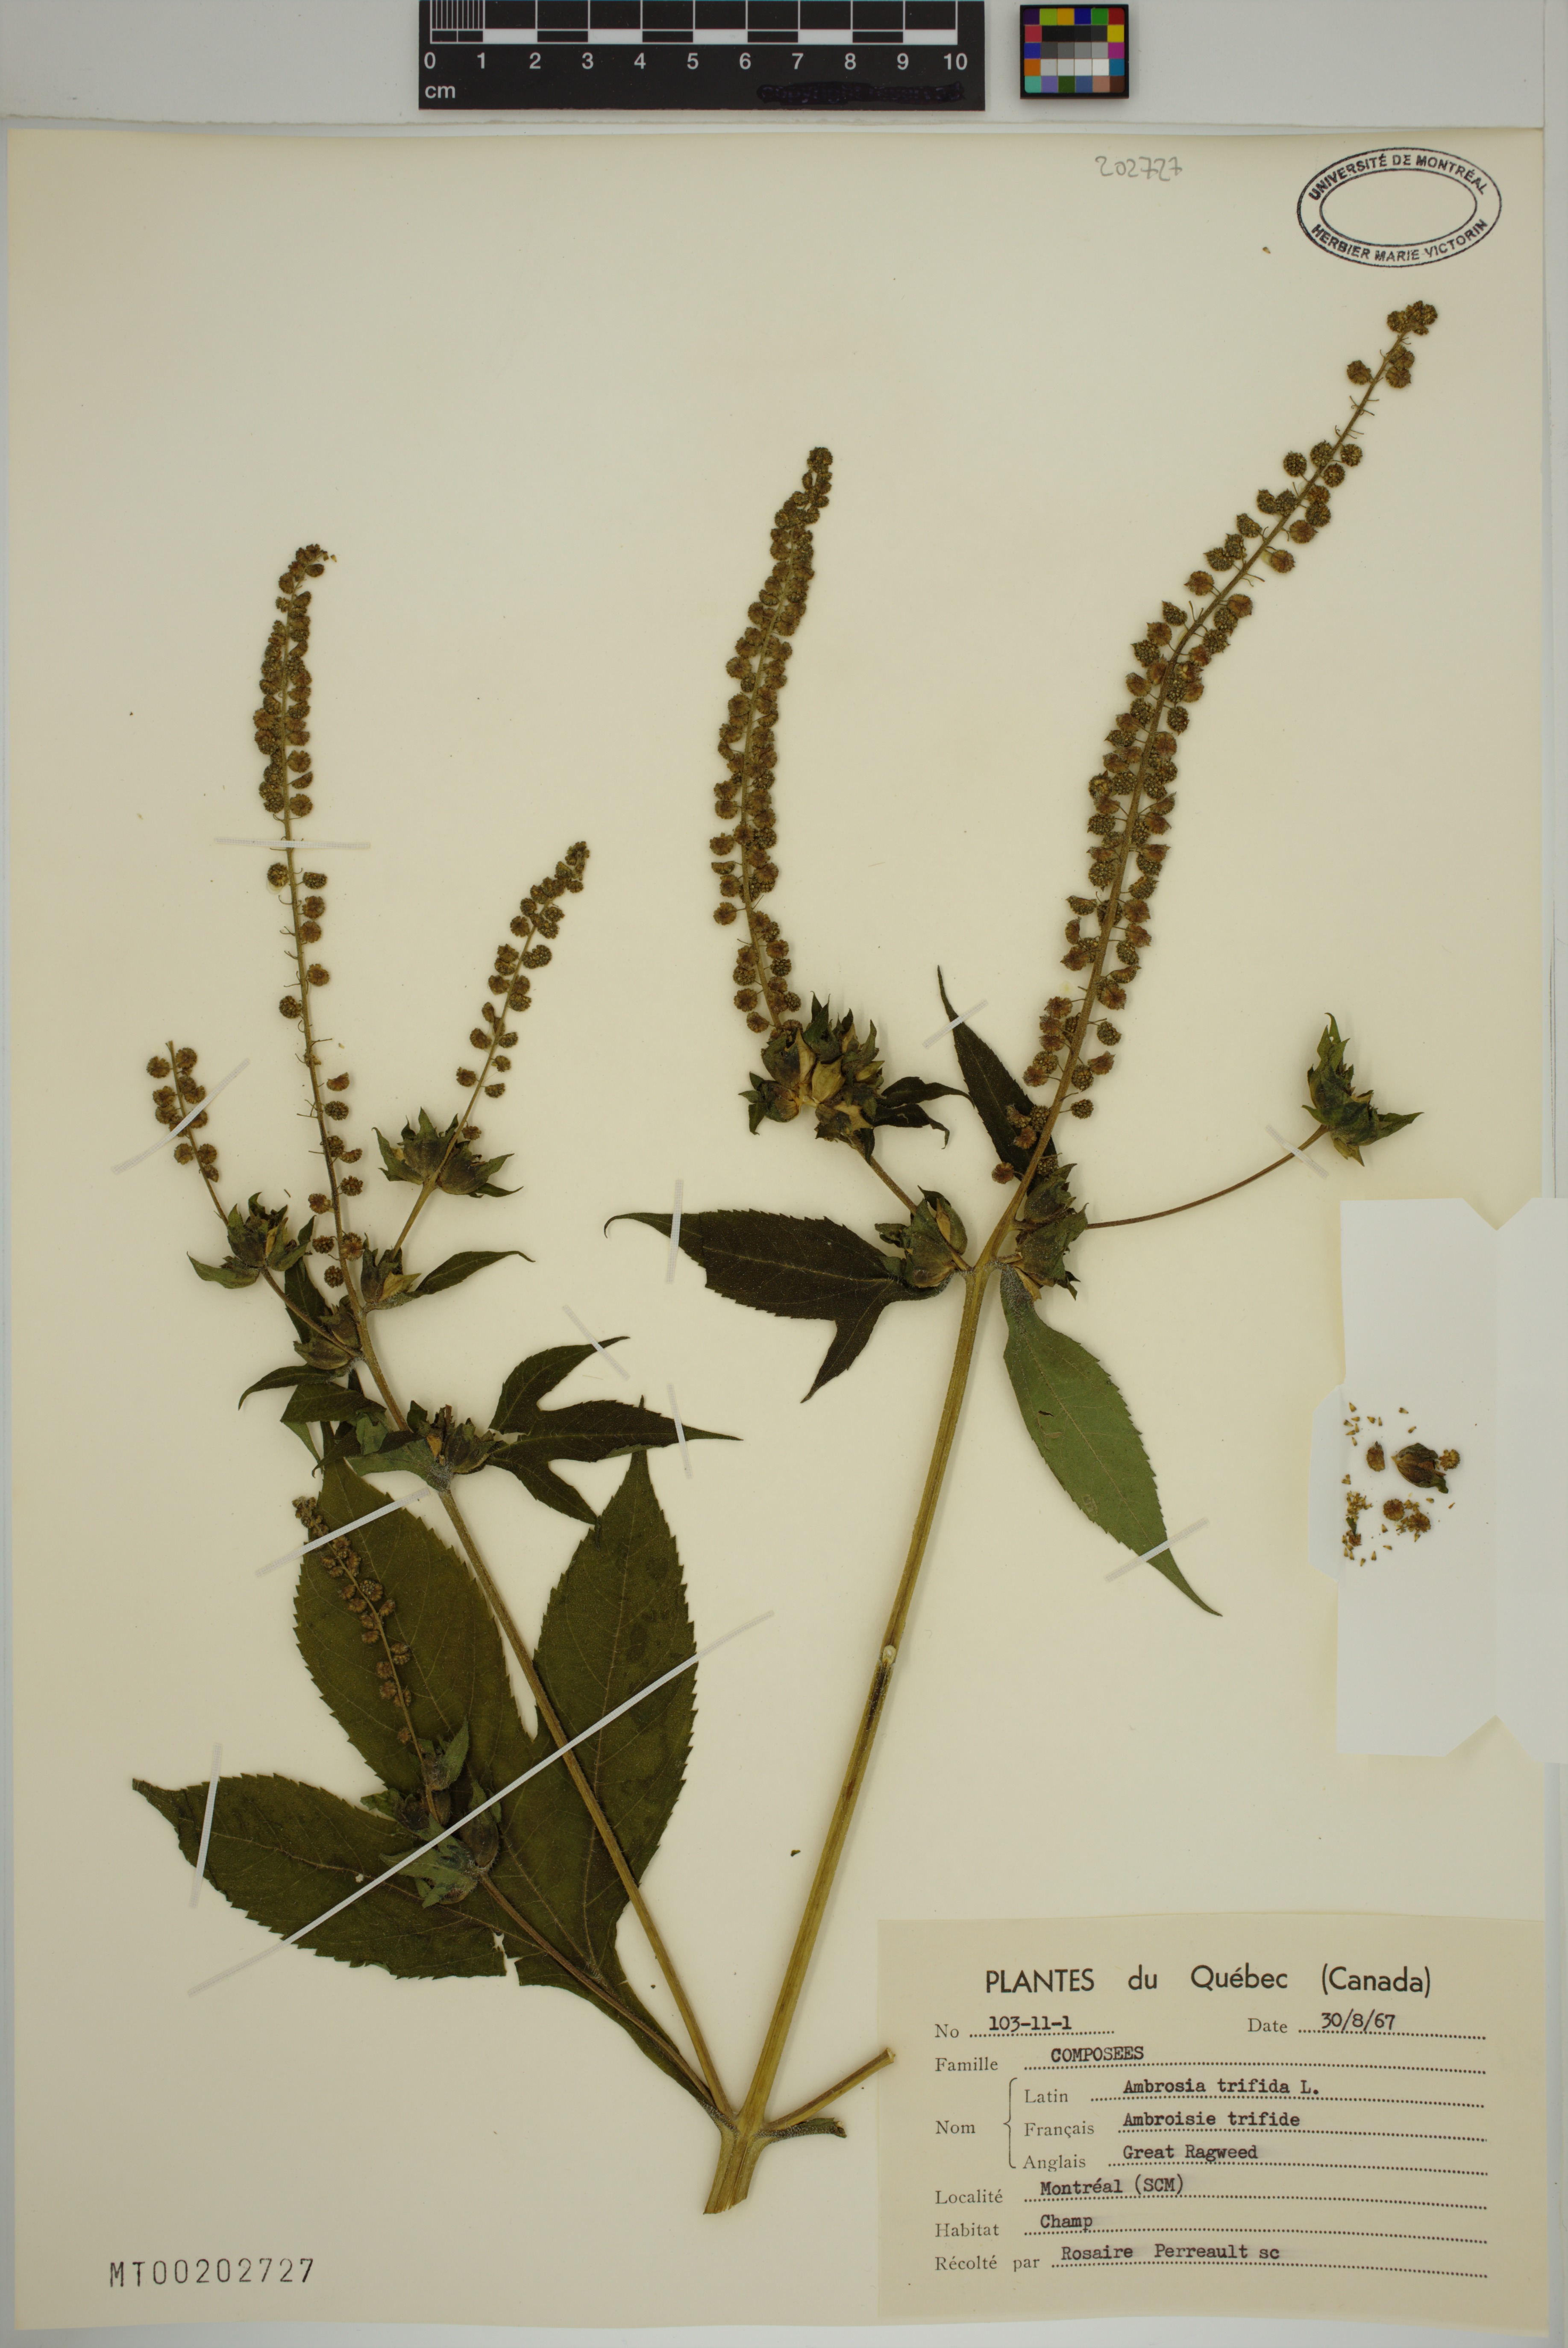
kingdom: Plantae
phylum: Tracheophyta
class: Magnoliopsida
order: Asterales
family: Asteraceae
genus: Ambrosia
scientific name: Ambrosia trifida
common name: Giant ragweed
